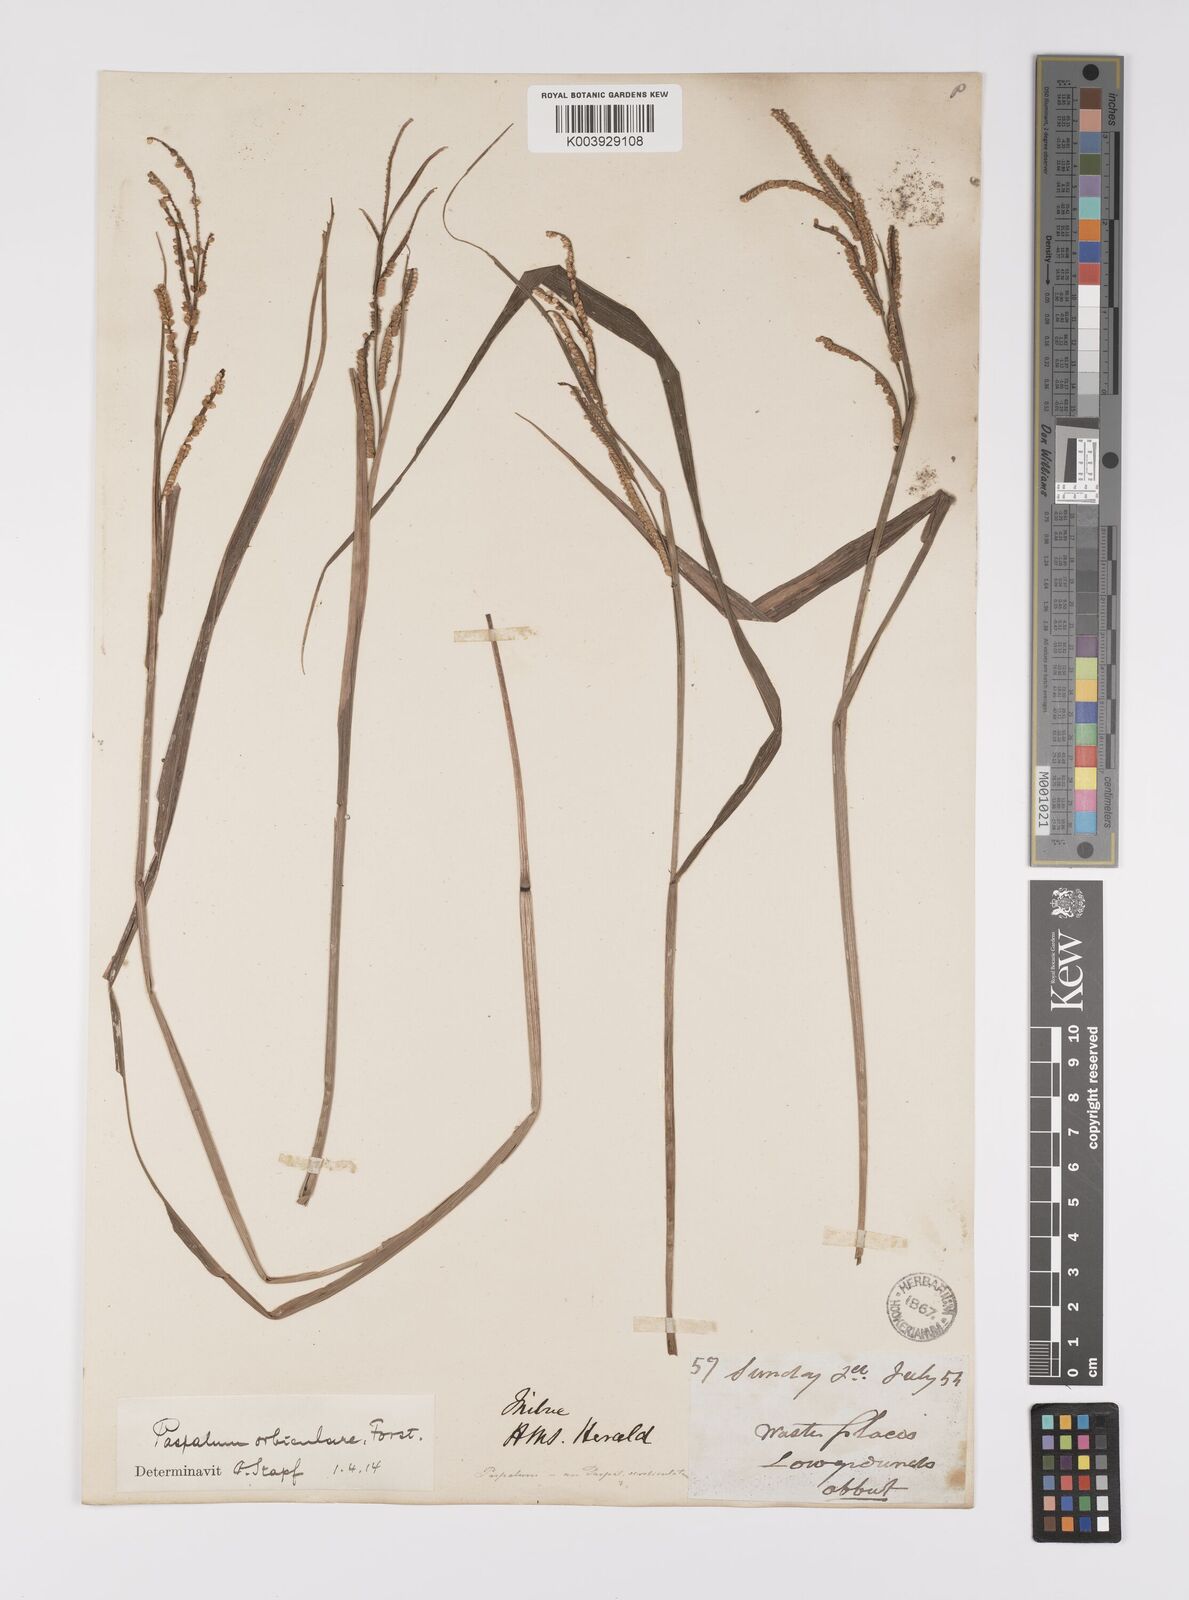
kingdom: Plantae
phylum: Tracheophyta
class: Liliopsida
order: Poales
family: Poaceae
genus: Paspalum
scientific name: Paspalum scrobiculatum
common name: Kodo millet
